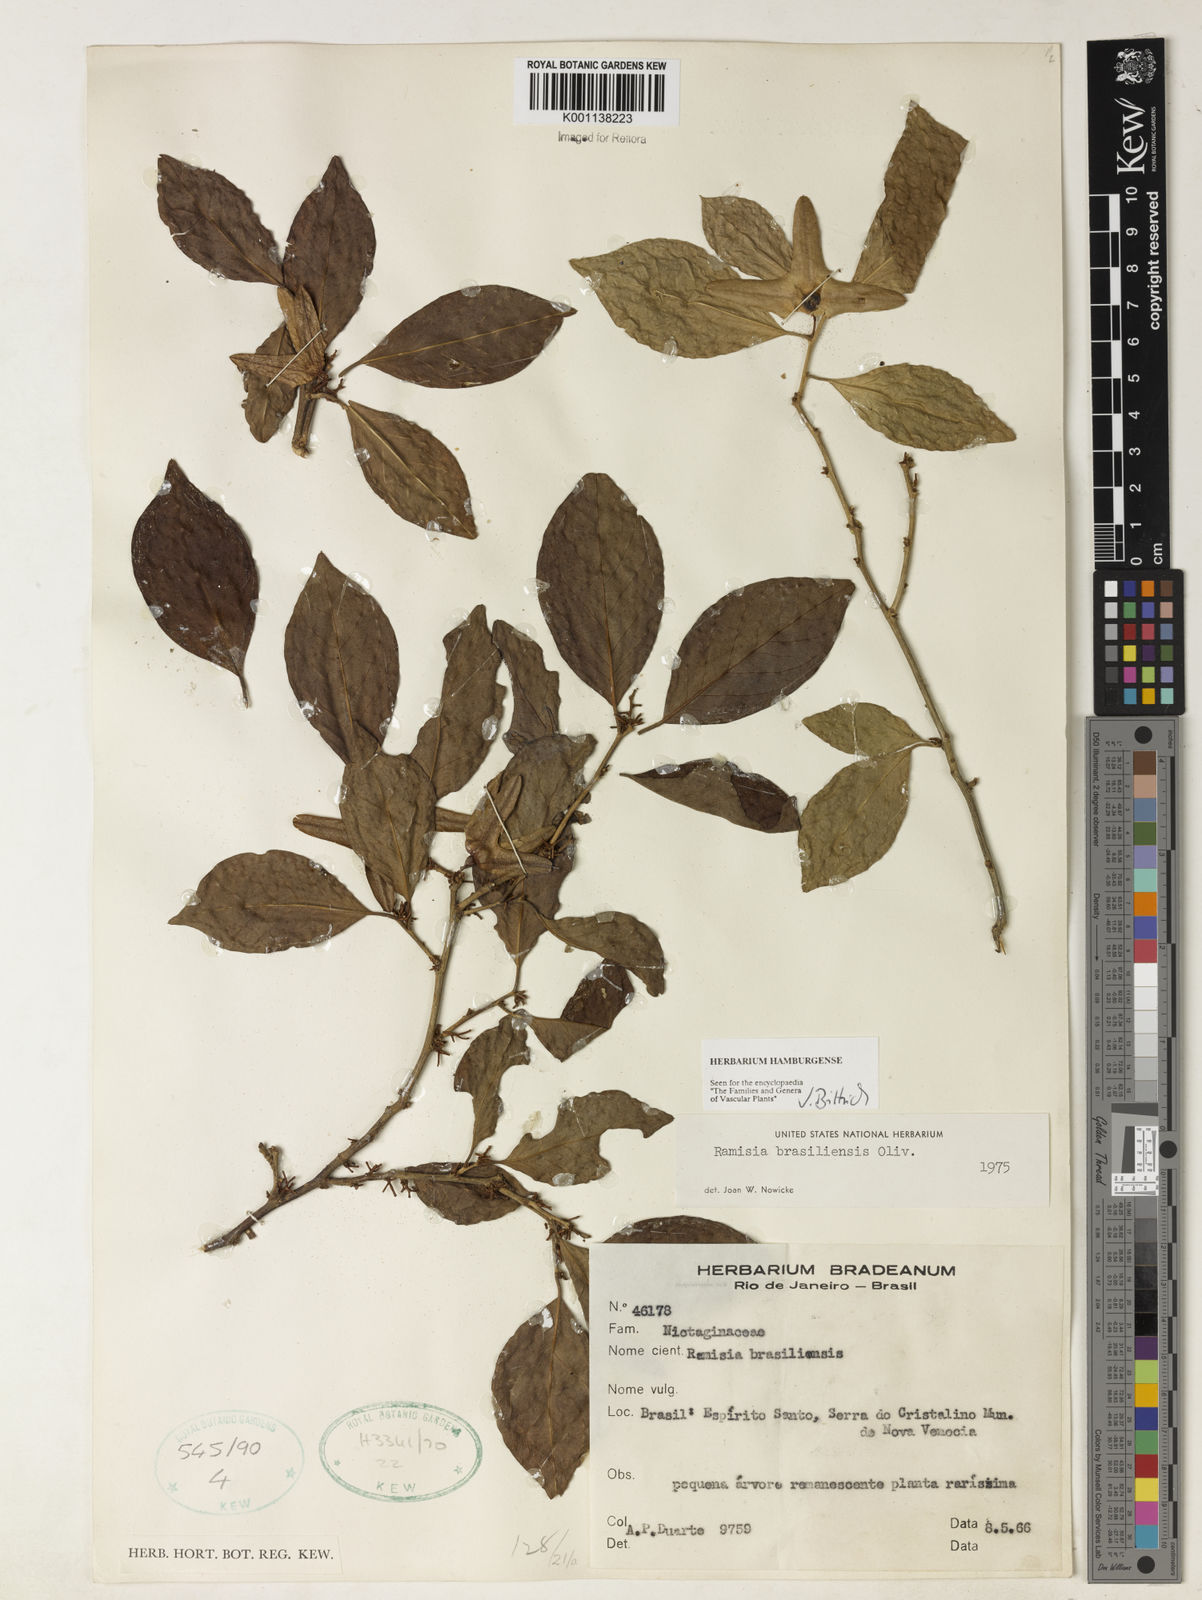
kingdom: Plantae
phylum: Tracheophyta
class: Magnoliopsida
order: Caryophyllales
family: Nyctaginaceae
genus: Ramisia
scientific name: Ramisia brasiliensis
